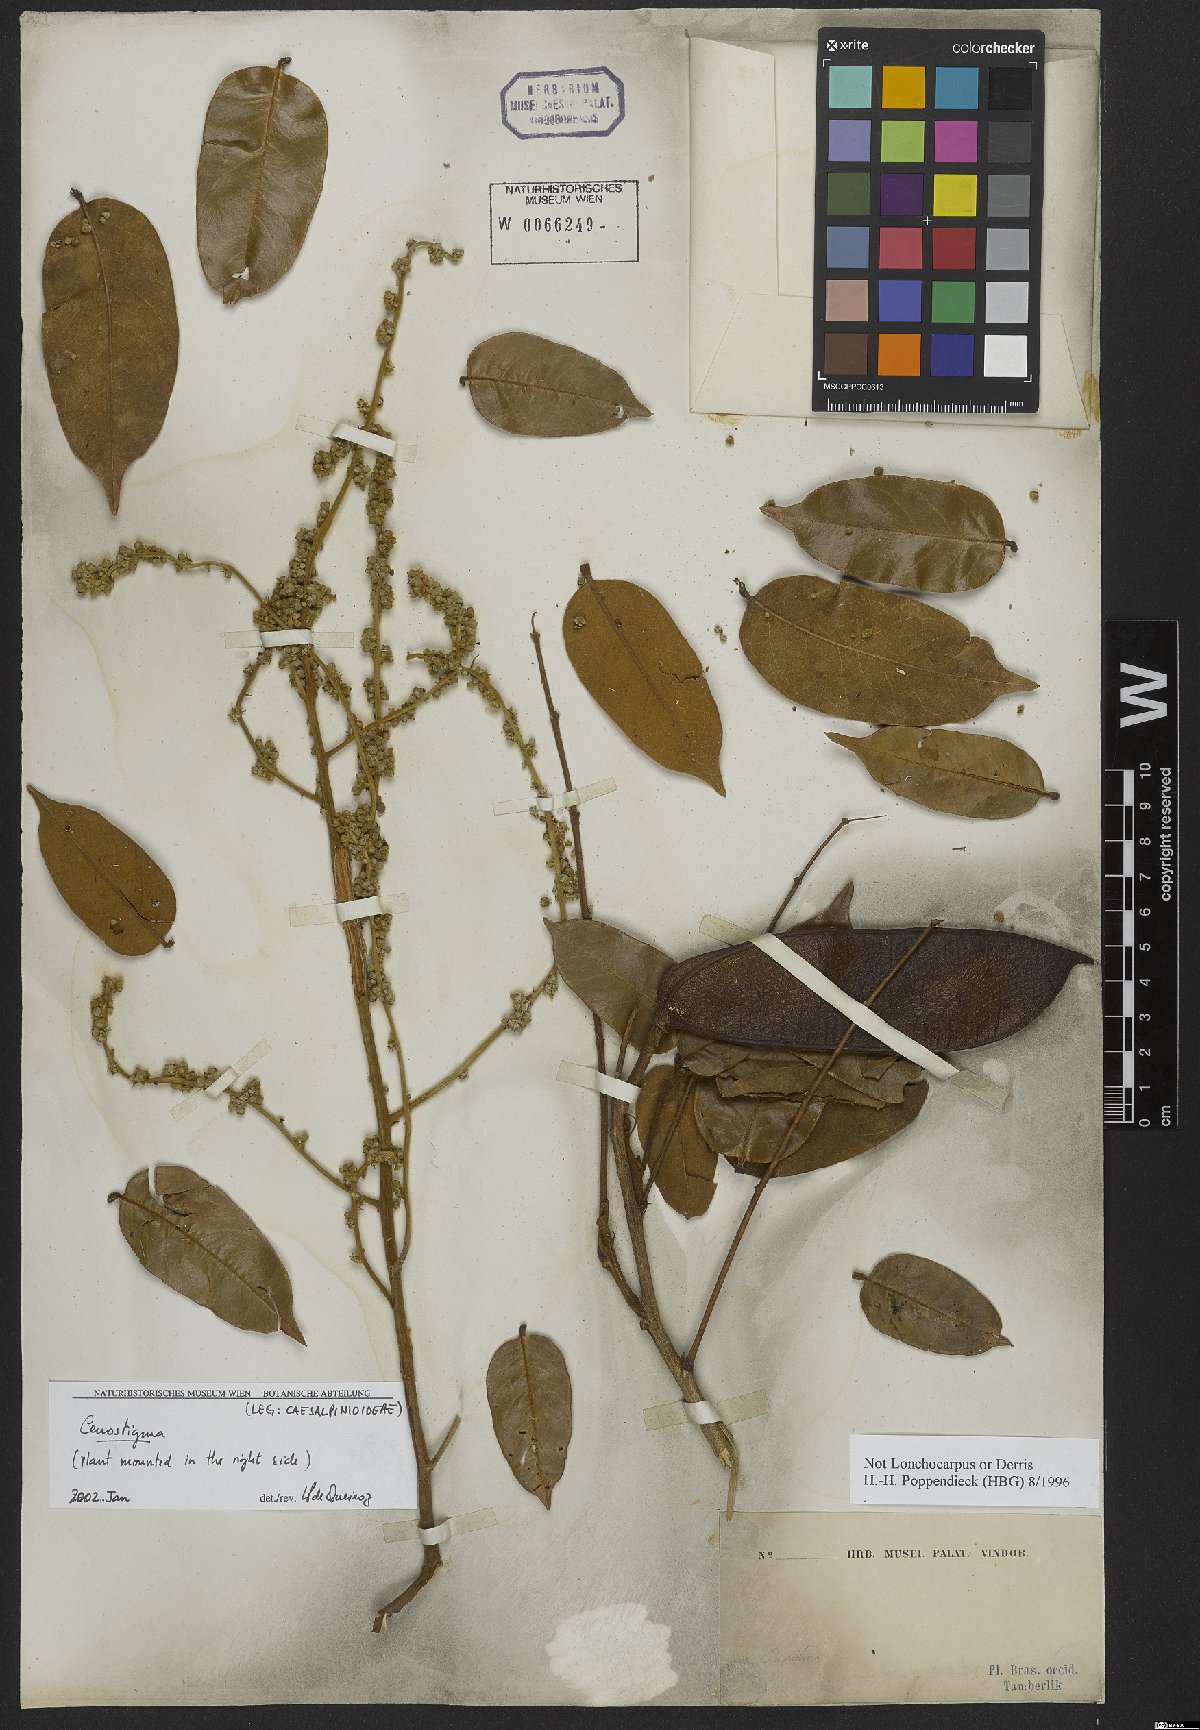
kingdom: Plantae
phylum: Tracheophyta
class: Magnoliopsida
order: Fabales
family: Fabaceae
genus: Cenostigma
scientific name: Cenostigma
